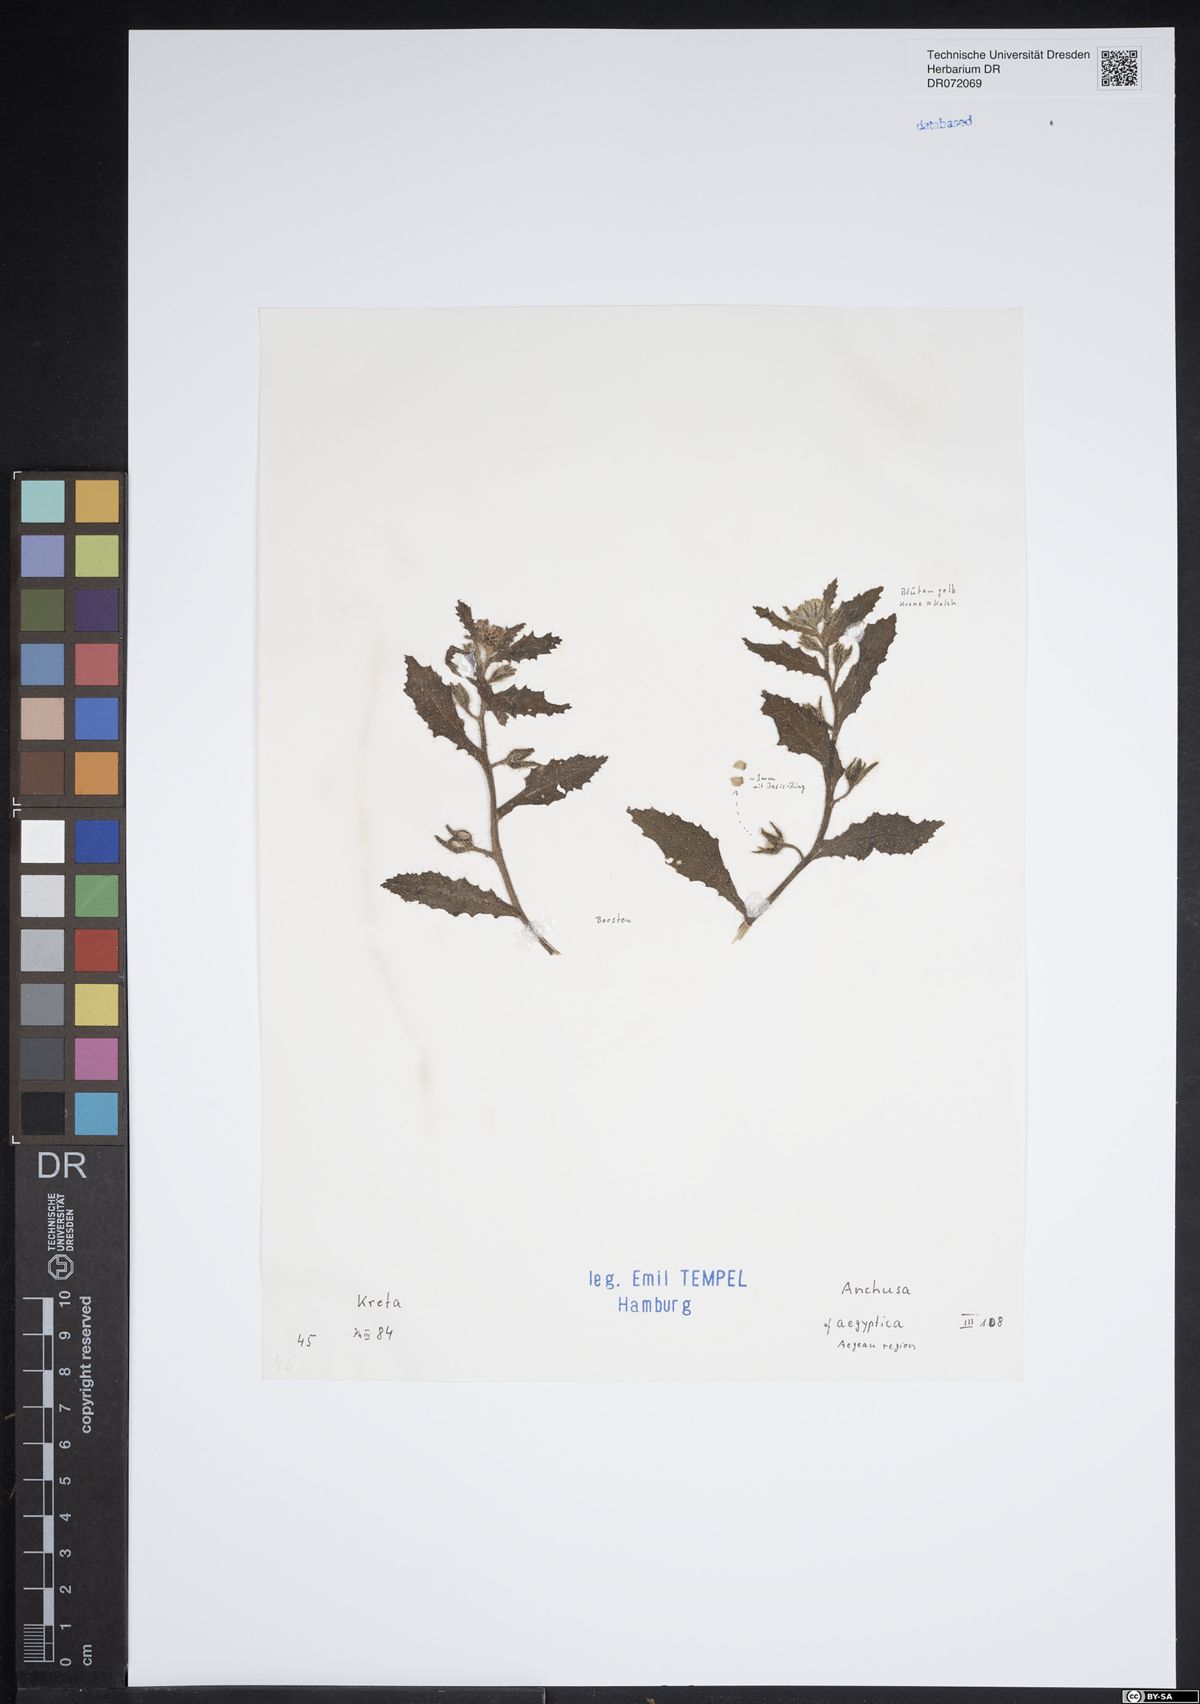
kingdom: Plantae
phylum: Tracheophyta
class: Magnoliopsida
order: Boraginales
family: Boraginaceae
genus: Lycopsis
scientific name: Lycopsis aegyptiaca
